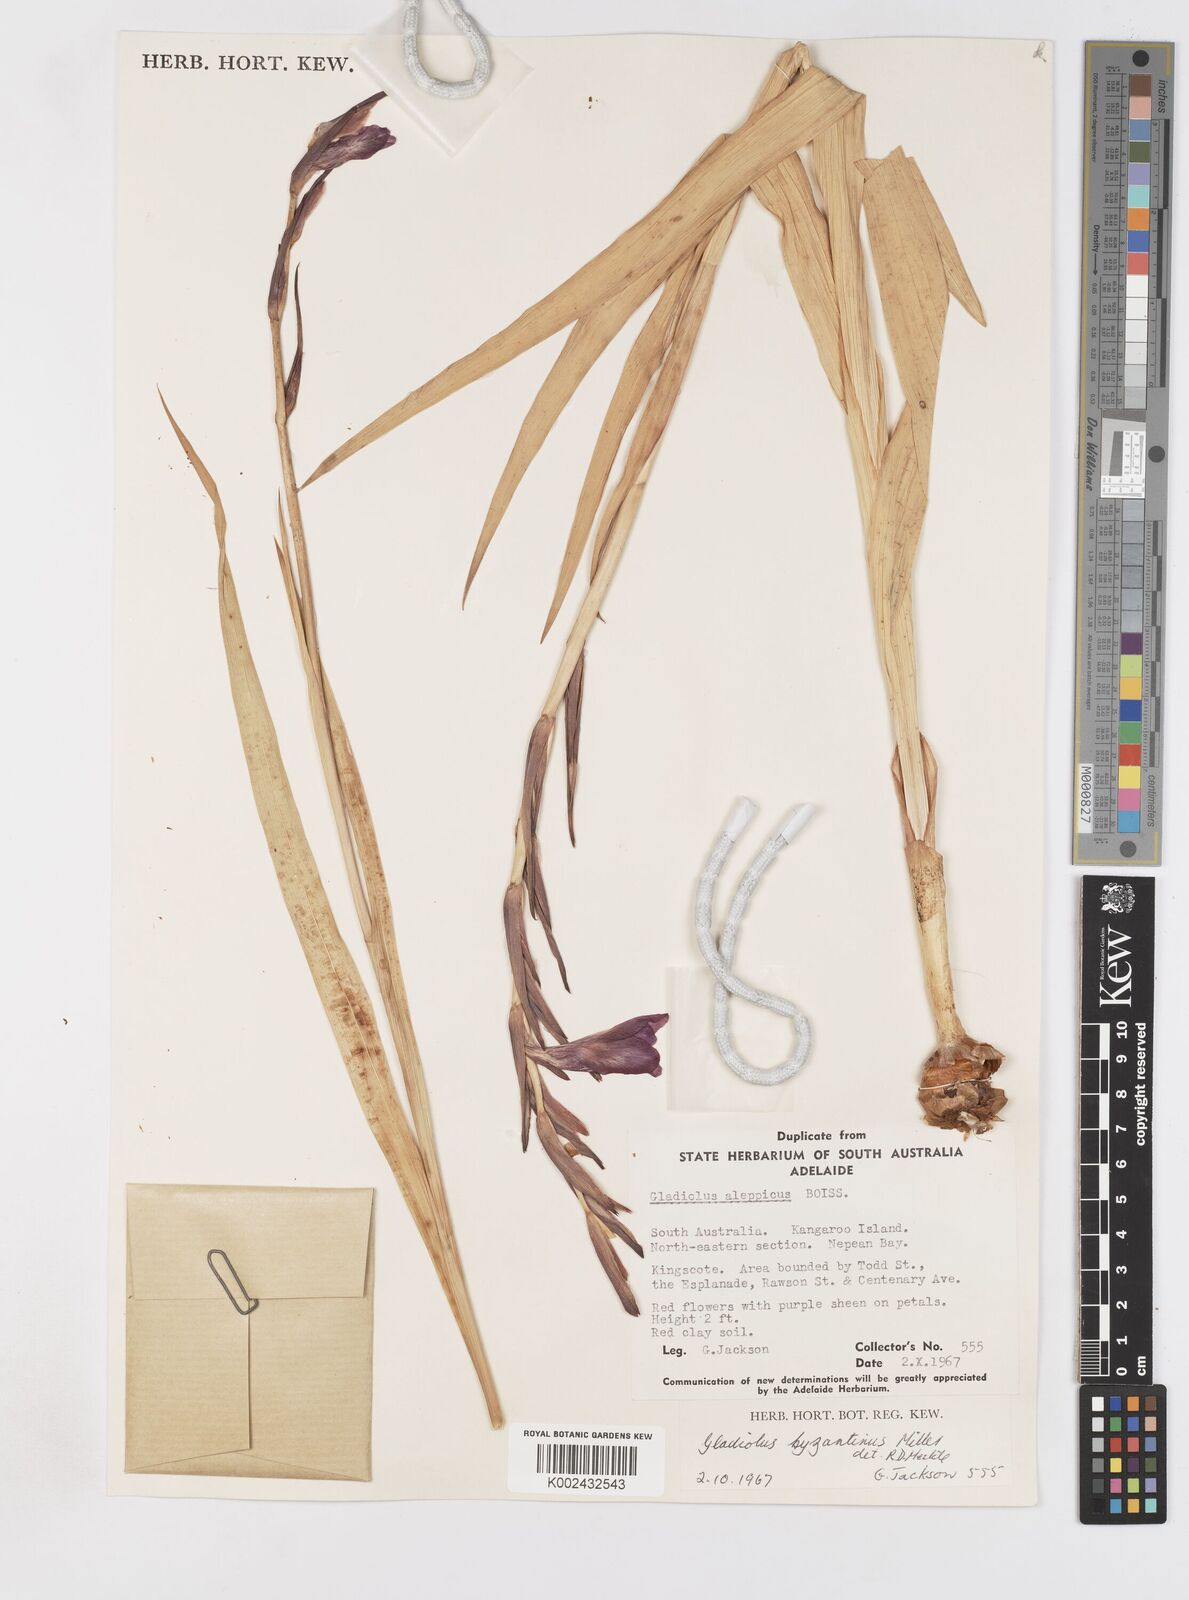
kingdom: Plantae
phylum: Tracheophyta
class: Liliopsida
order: Asparagales
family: Iridaceae
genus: Gladiolus
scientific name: Gladiolus byzantinus
